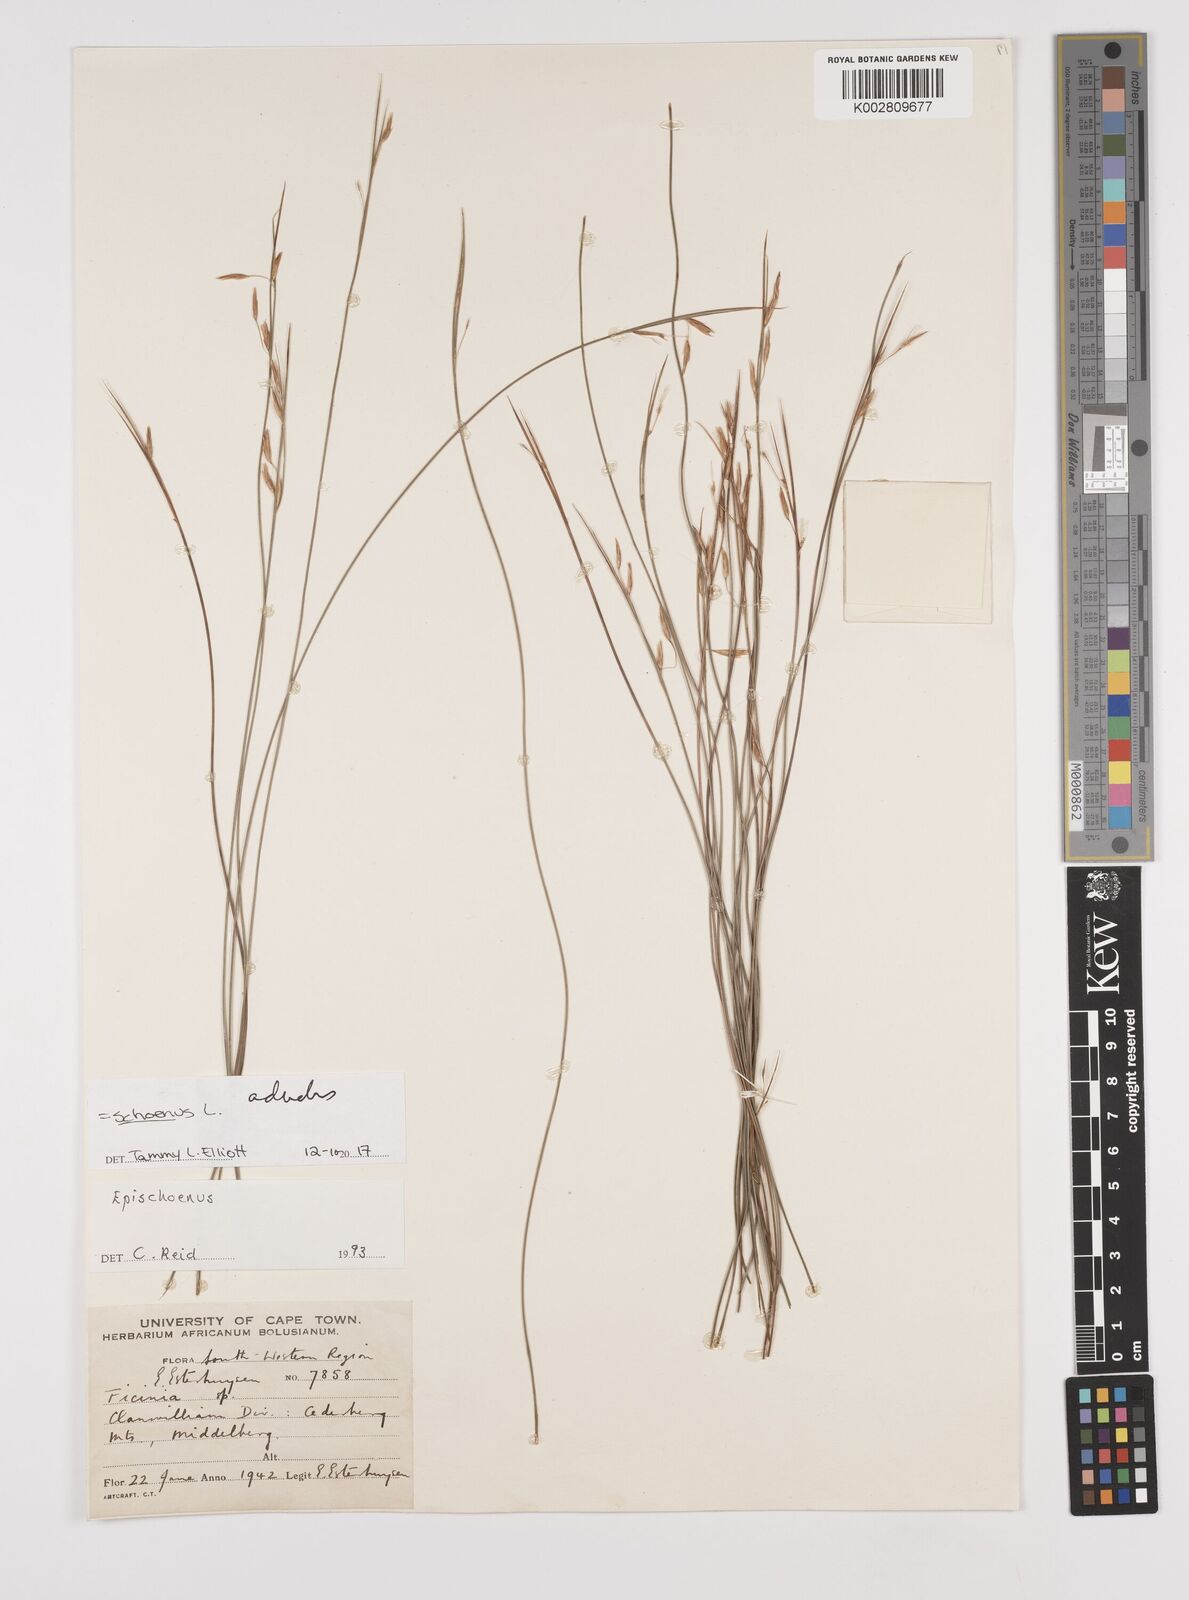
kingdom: Plantae
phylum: Tracheophyta
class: Liliopsida
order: Poales
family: Cyperaceae
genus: Schoenus
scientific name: Schoenus adnatus
